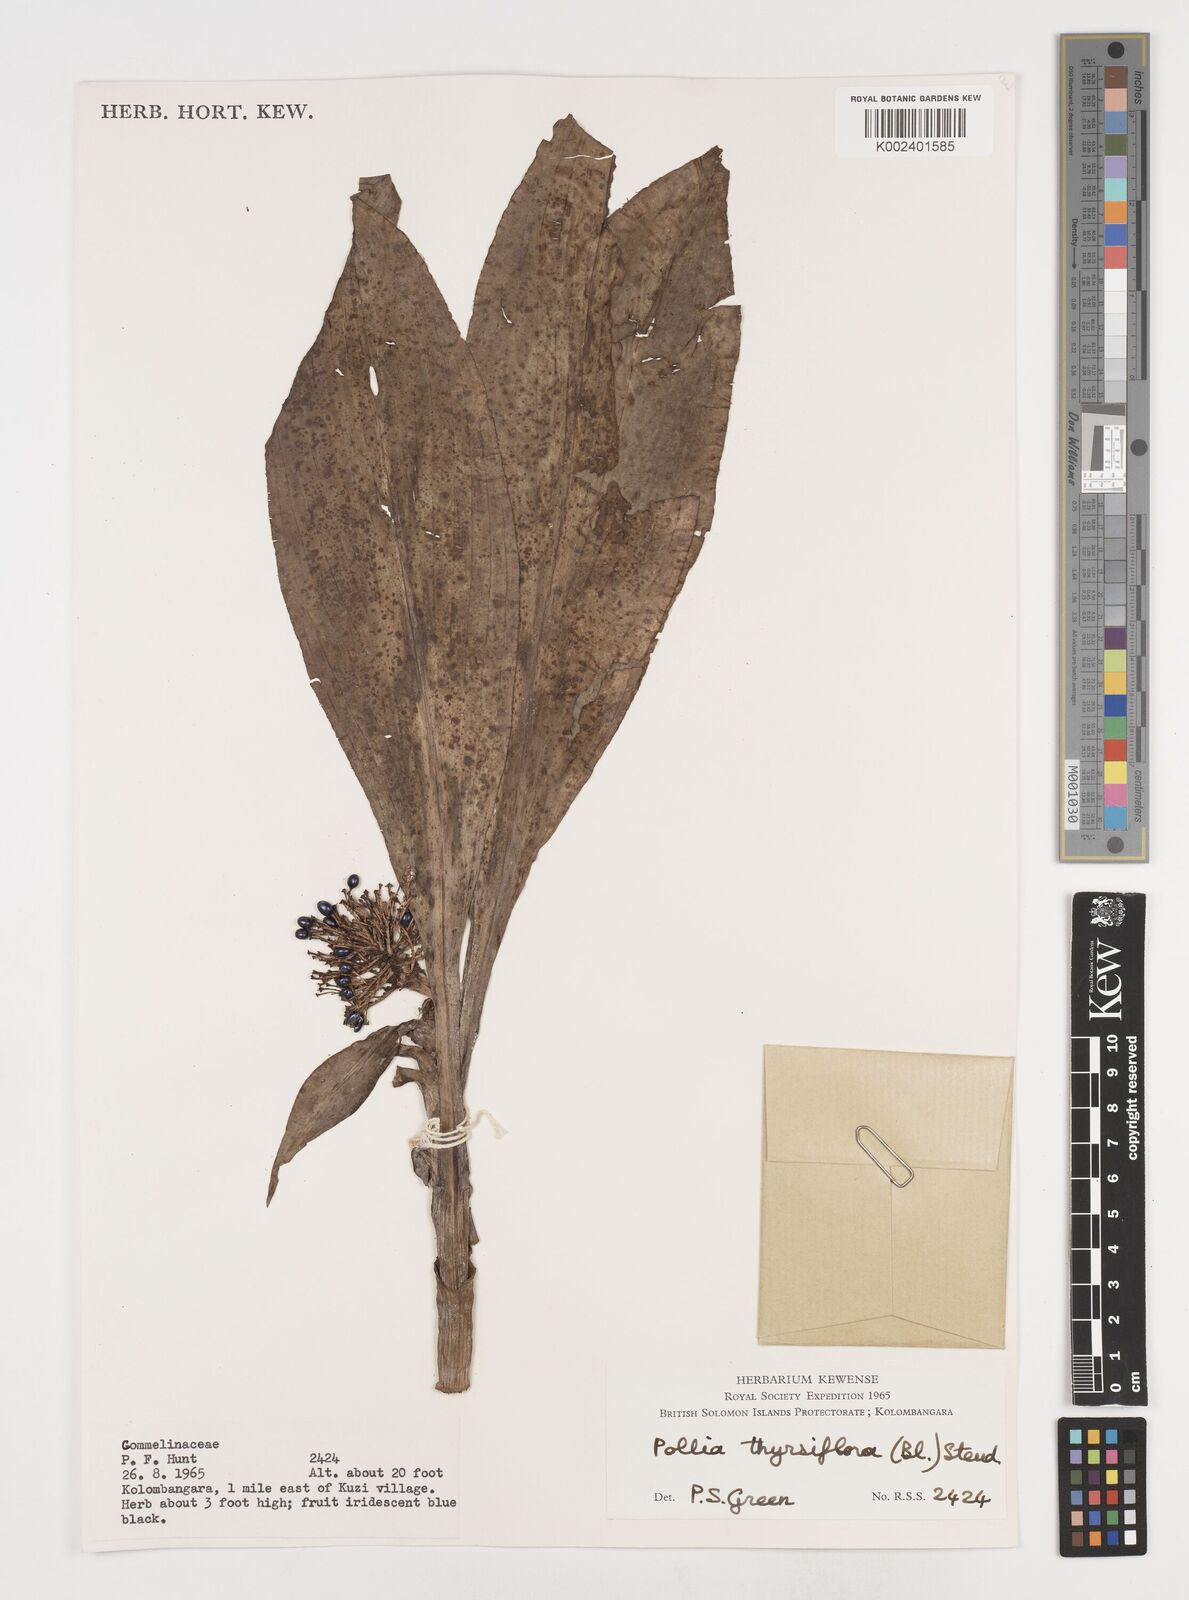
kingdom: Plantae
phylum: Tracheophyta
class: Liliopsida
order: Commelinales
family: Commelinaceae
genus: Pollia
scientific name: Pollia thyrsiflora
